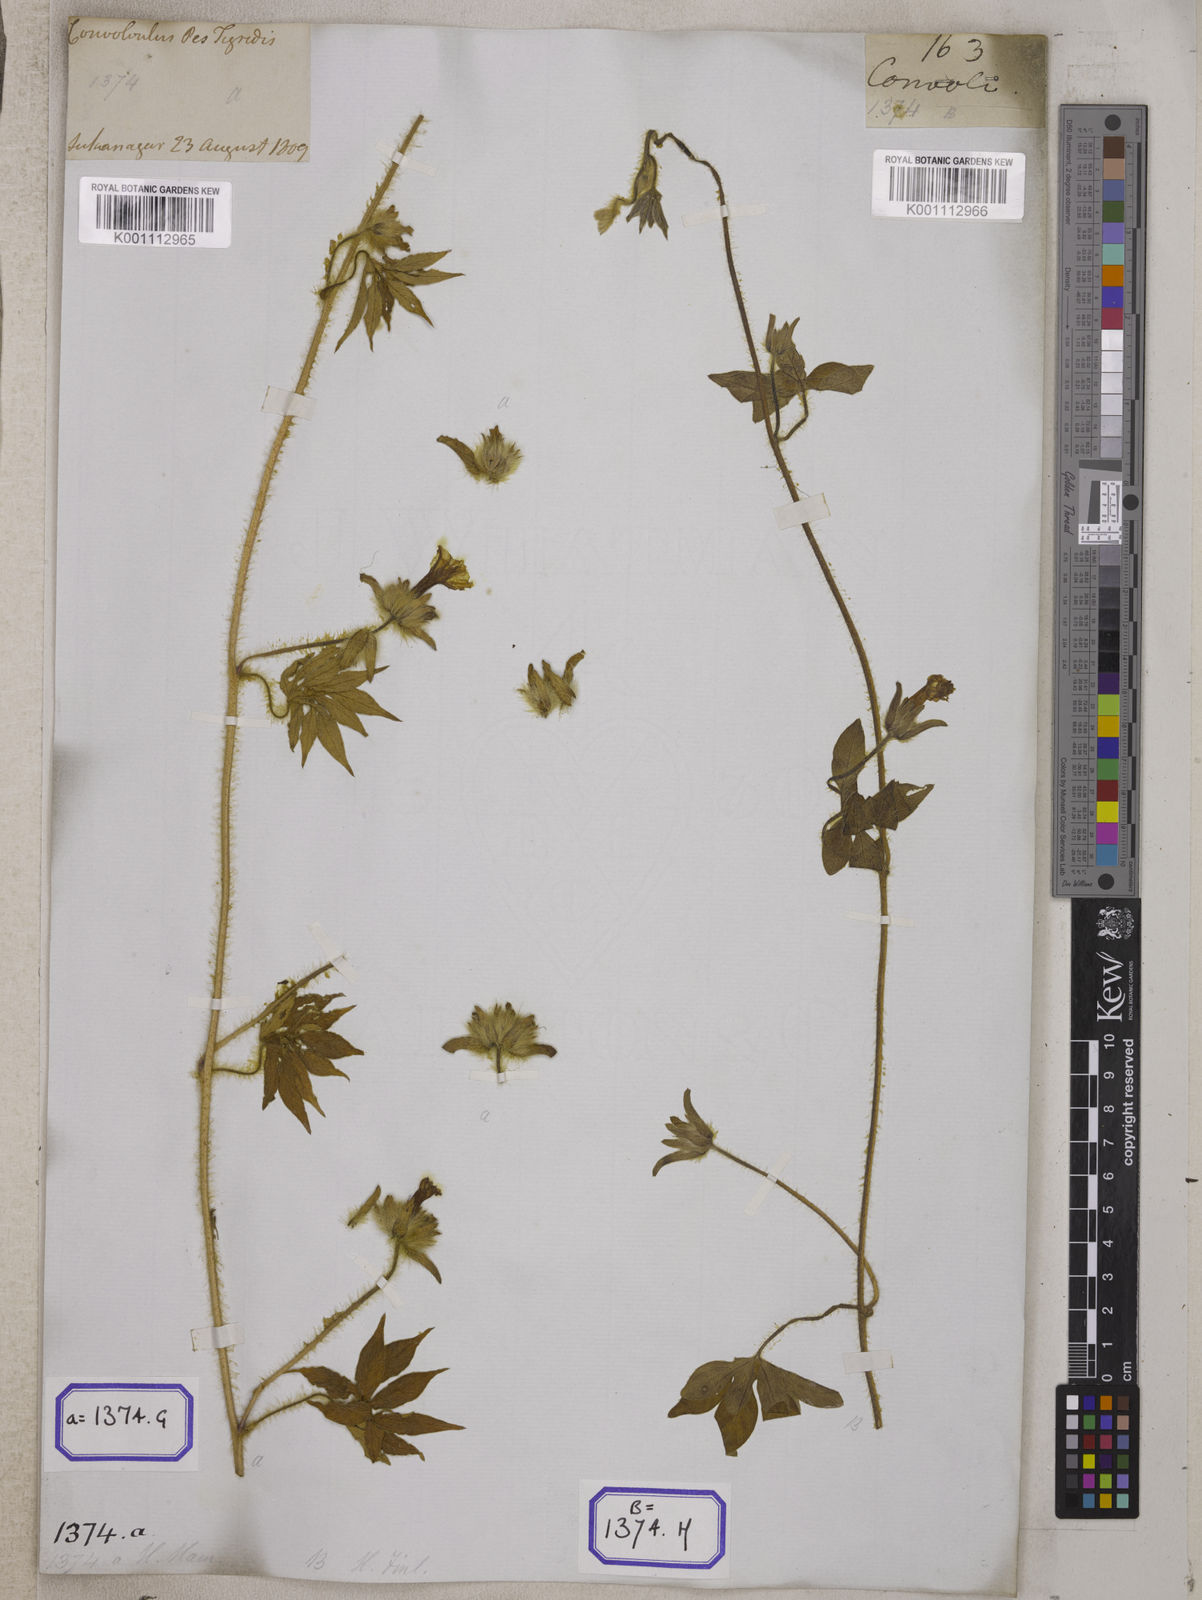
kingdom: Plantae
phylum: Tracheophyta
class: Magnoliopsida
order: Solanales
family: Convolvulaceae
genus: Ipomoea
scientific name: Ipomoea pes-tigridis
